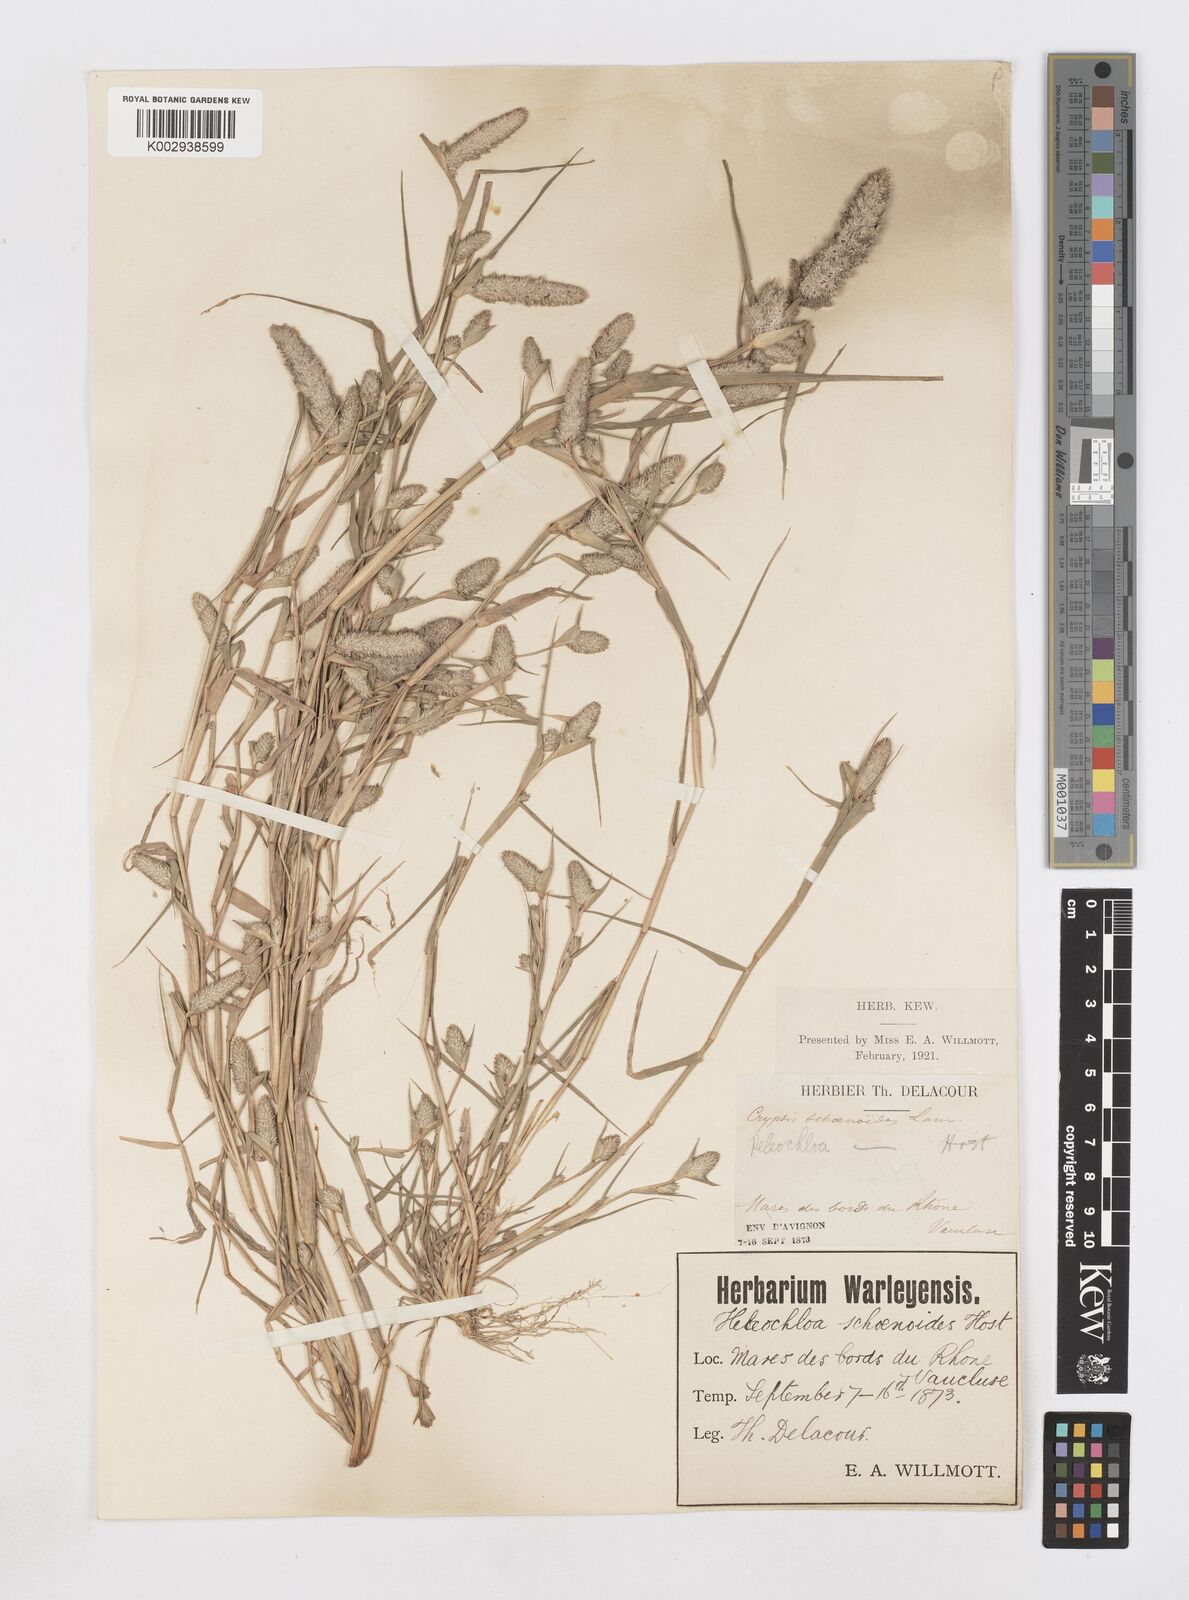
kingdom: Plantae
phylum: Tracheophyta
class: Liliopsida
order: Poales
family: Poaceae
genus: Sporobolus
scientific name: Sporobolus schoenoides
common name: Rush-like timothy
